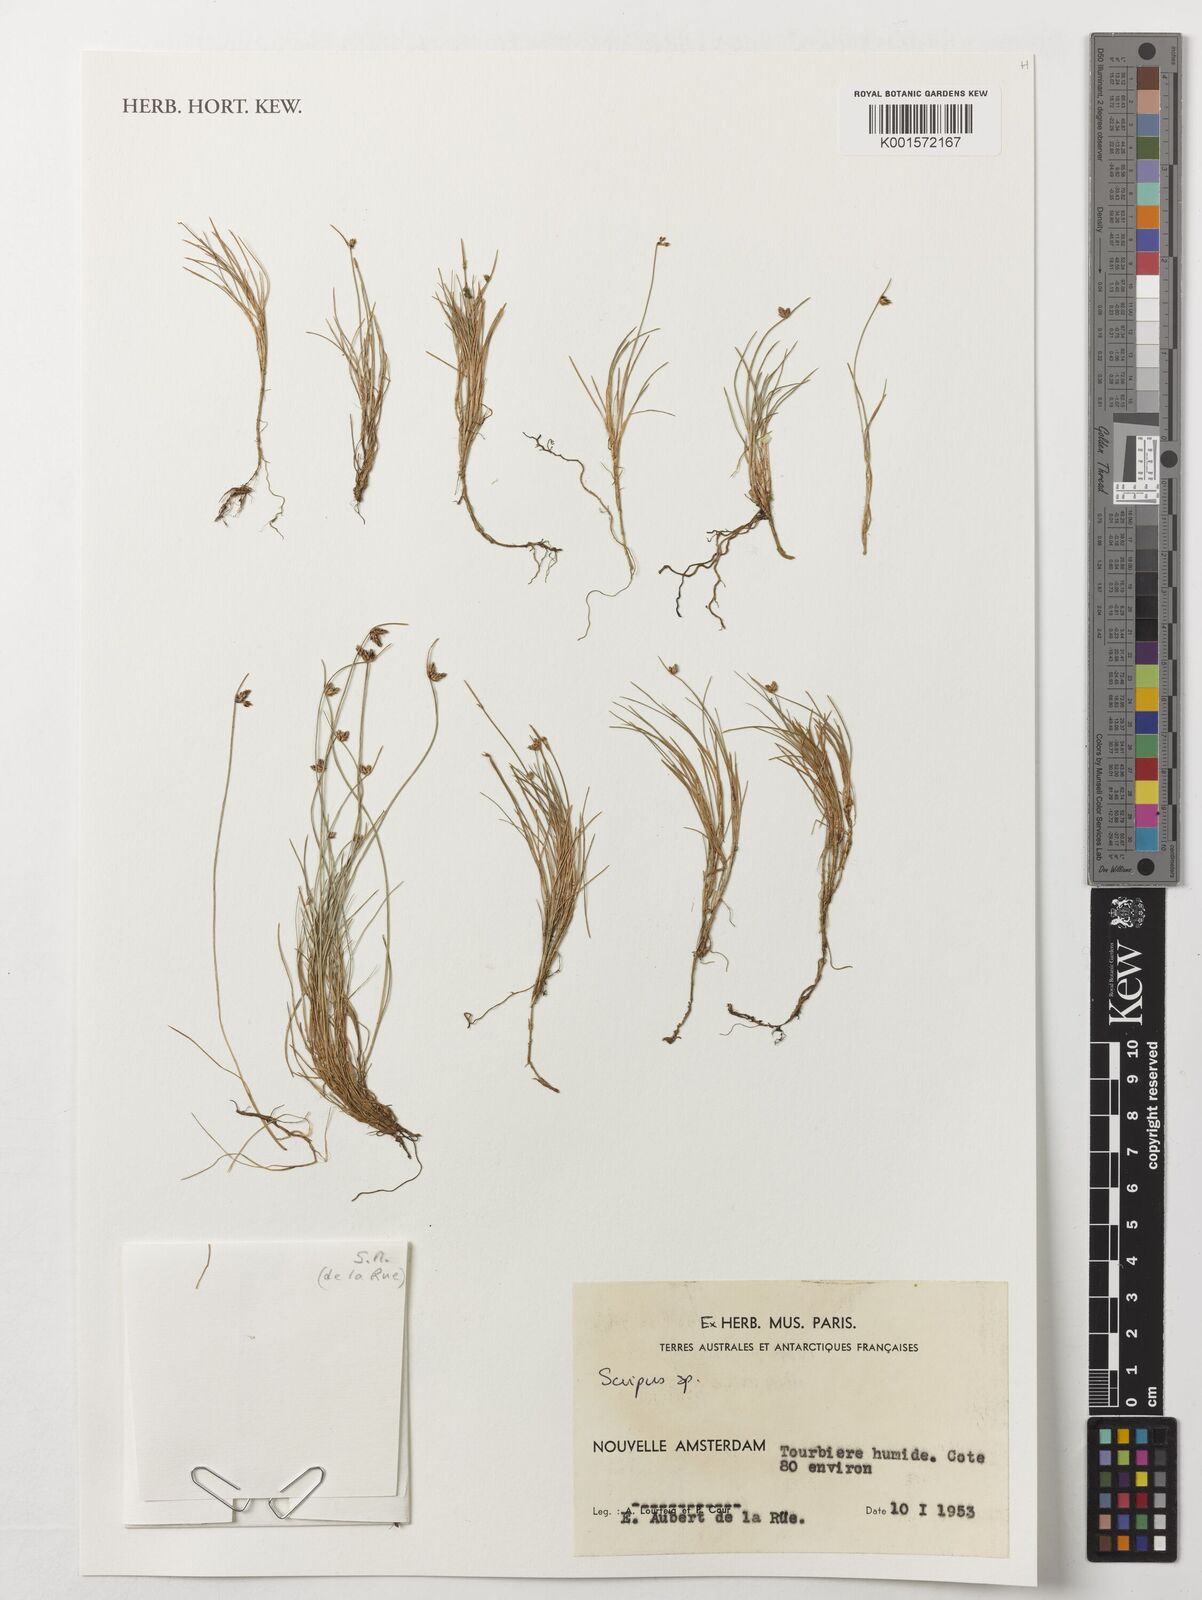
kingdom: Plantae
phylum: Tracheophyta
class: Liliopsida
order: Poales
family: Cyperaceae
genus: Scirpus
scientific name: Scirpus
